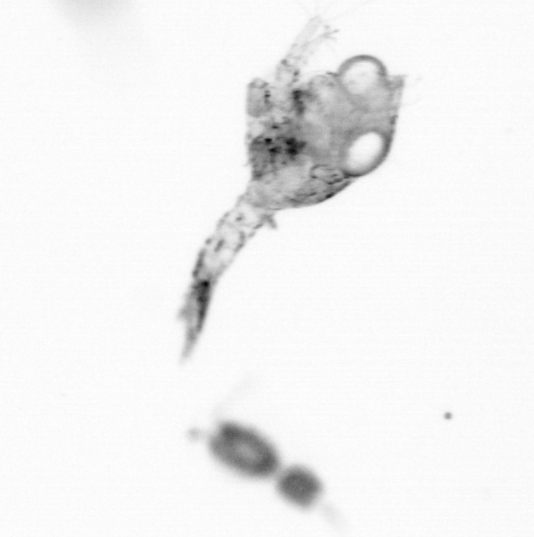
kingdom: Animalia
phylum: Arthropoda
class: Copepoda
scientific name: Copepoda
